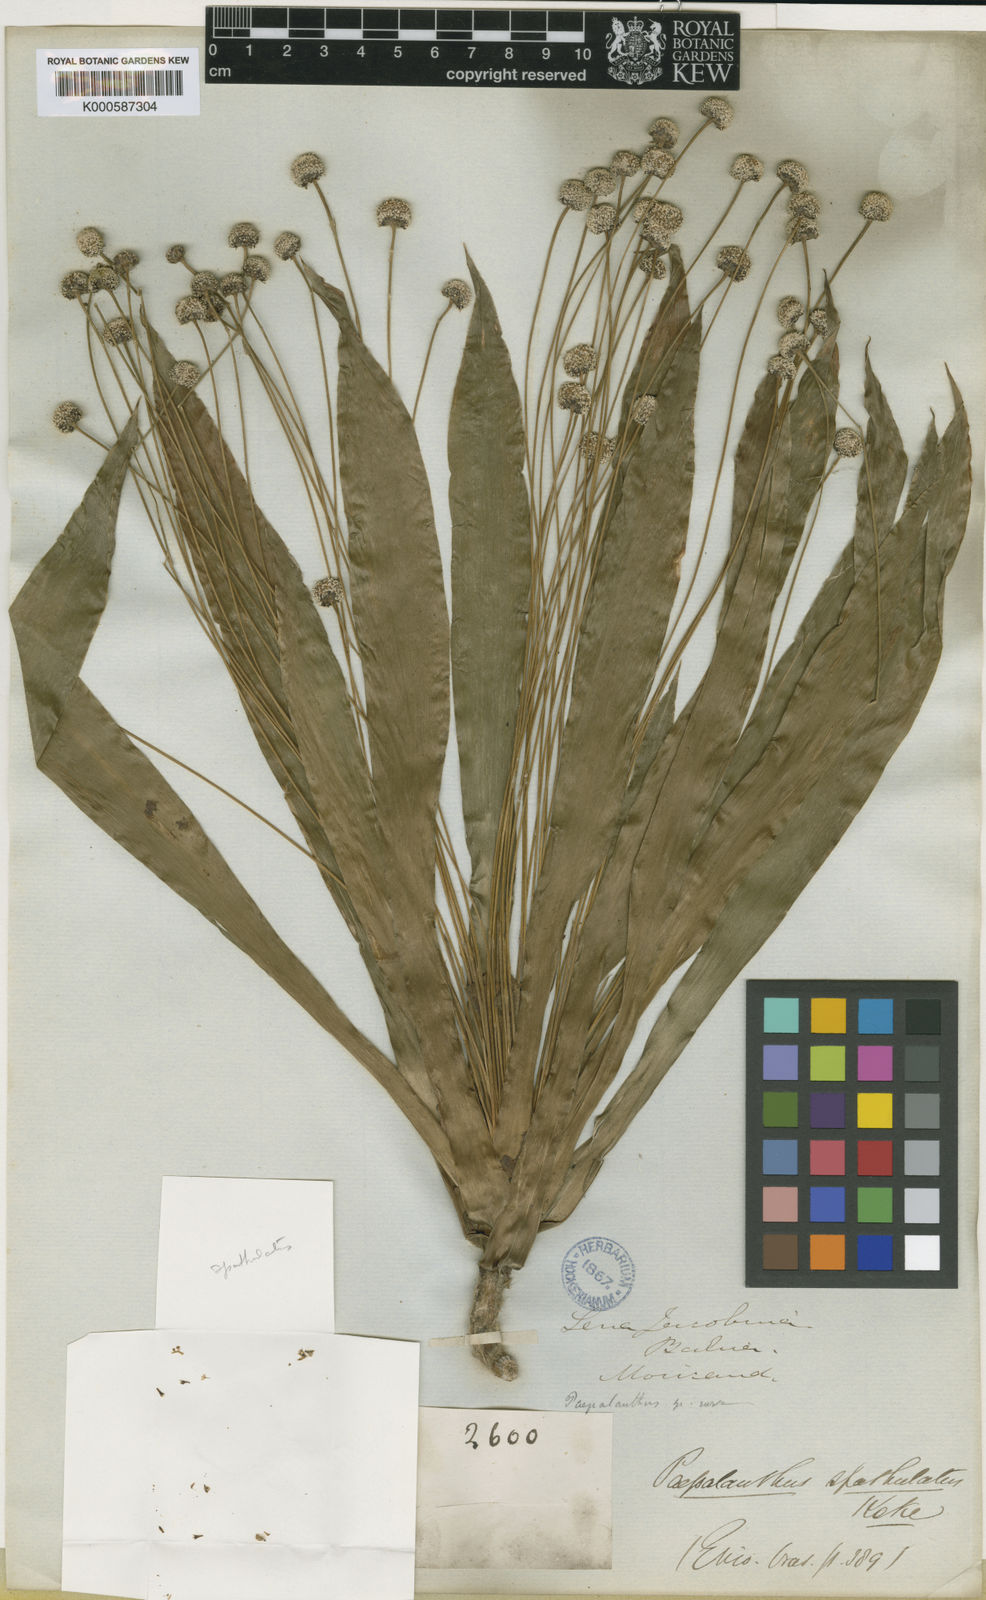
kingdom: Plantae
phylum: Tracheophyta
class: Liliopsida
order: Poales
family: Eriocaulaceae
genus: Paepalanthus
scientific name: Paepalanthus
